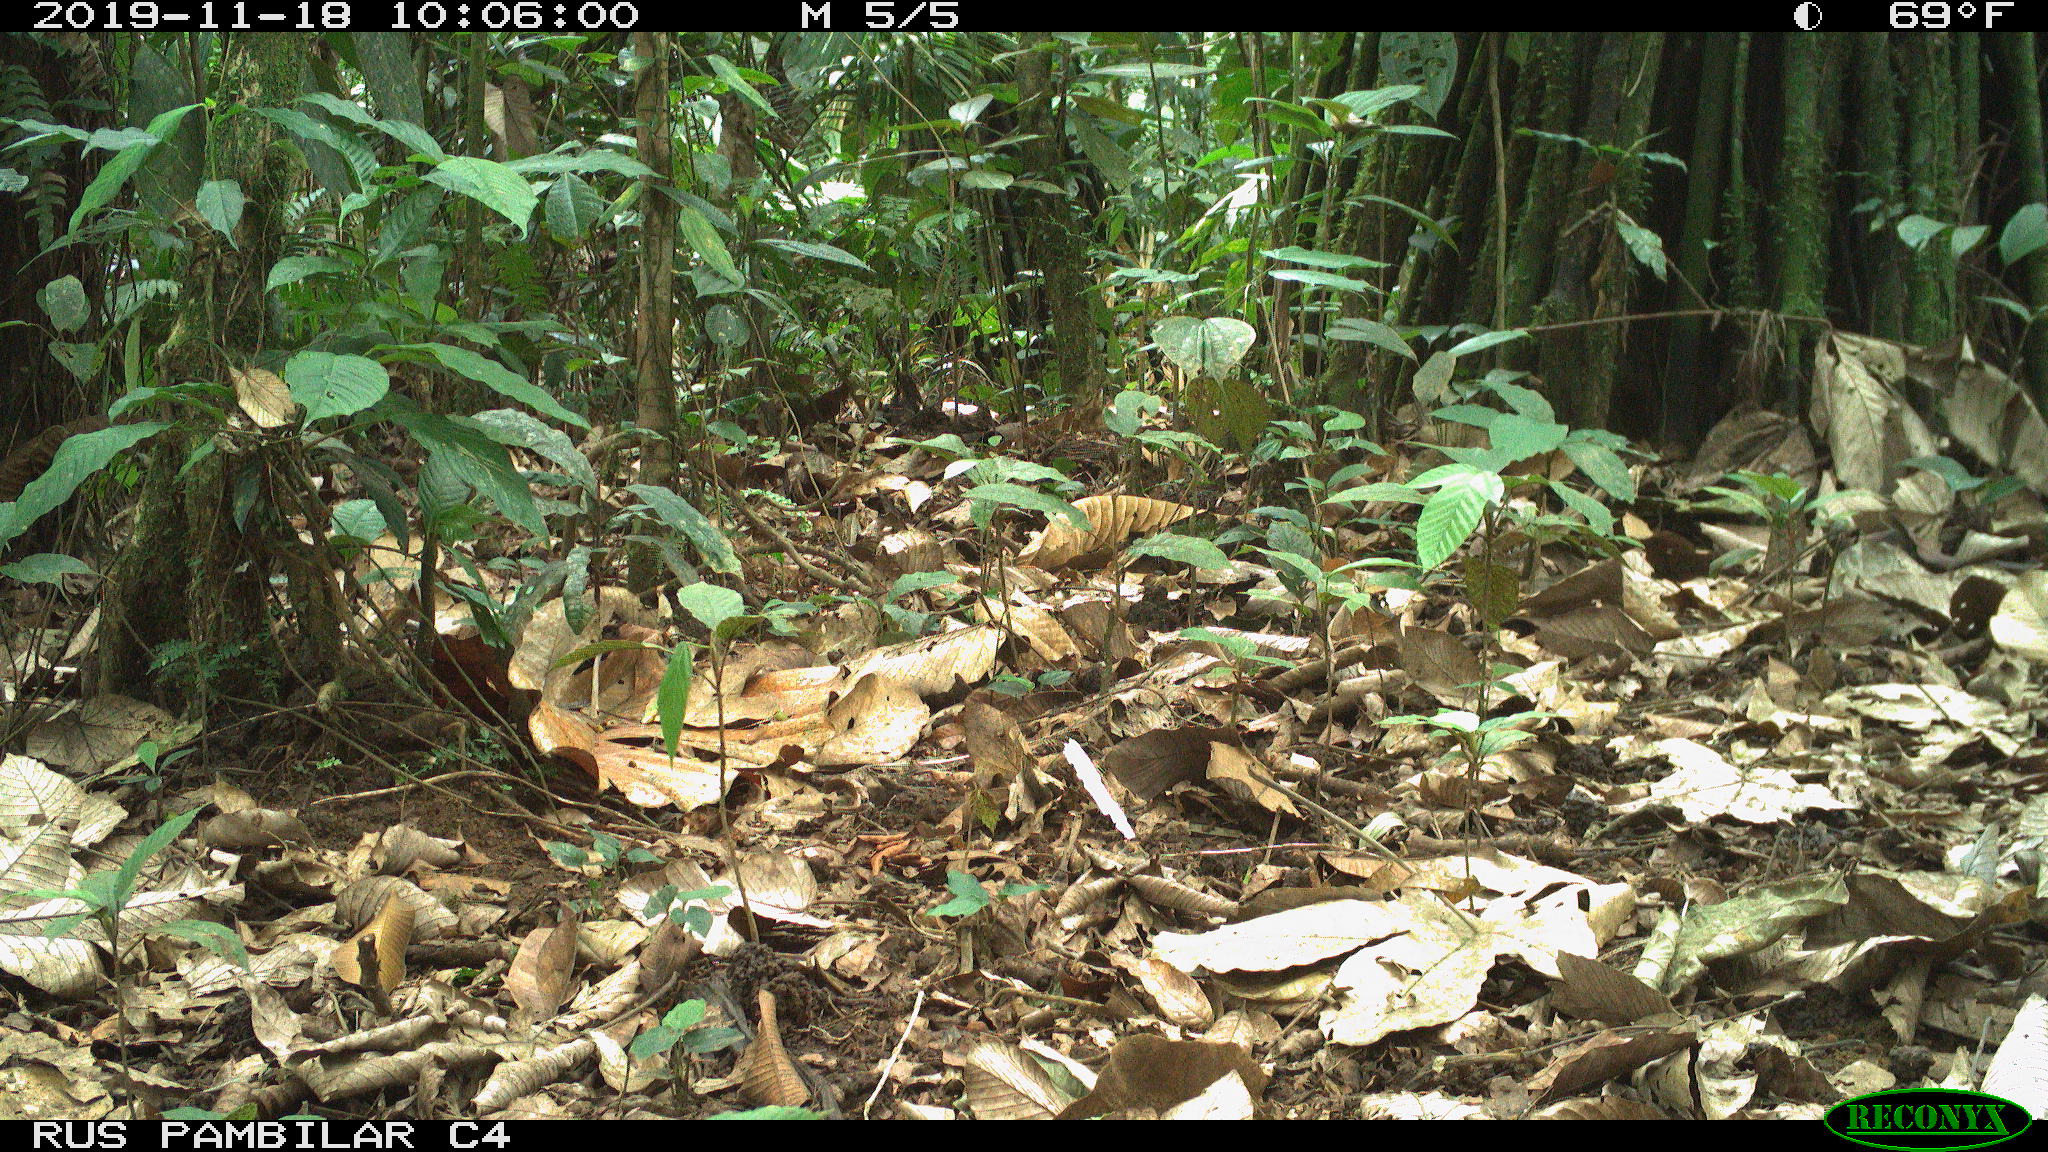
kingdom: Animalia
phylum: Chordata
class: Mammalia
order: Rodentia
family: Dasyproctidae
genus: Dasyprocta
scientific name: Dasyprocta punctata
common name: Central american agouti
